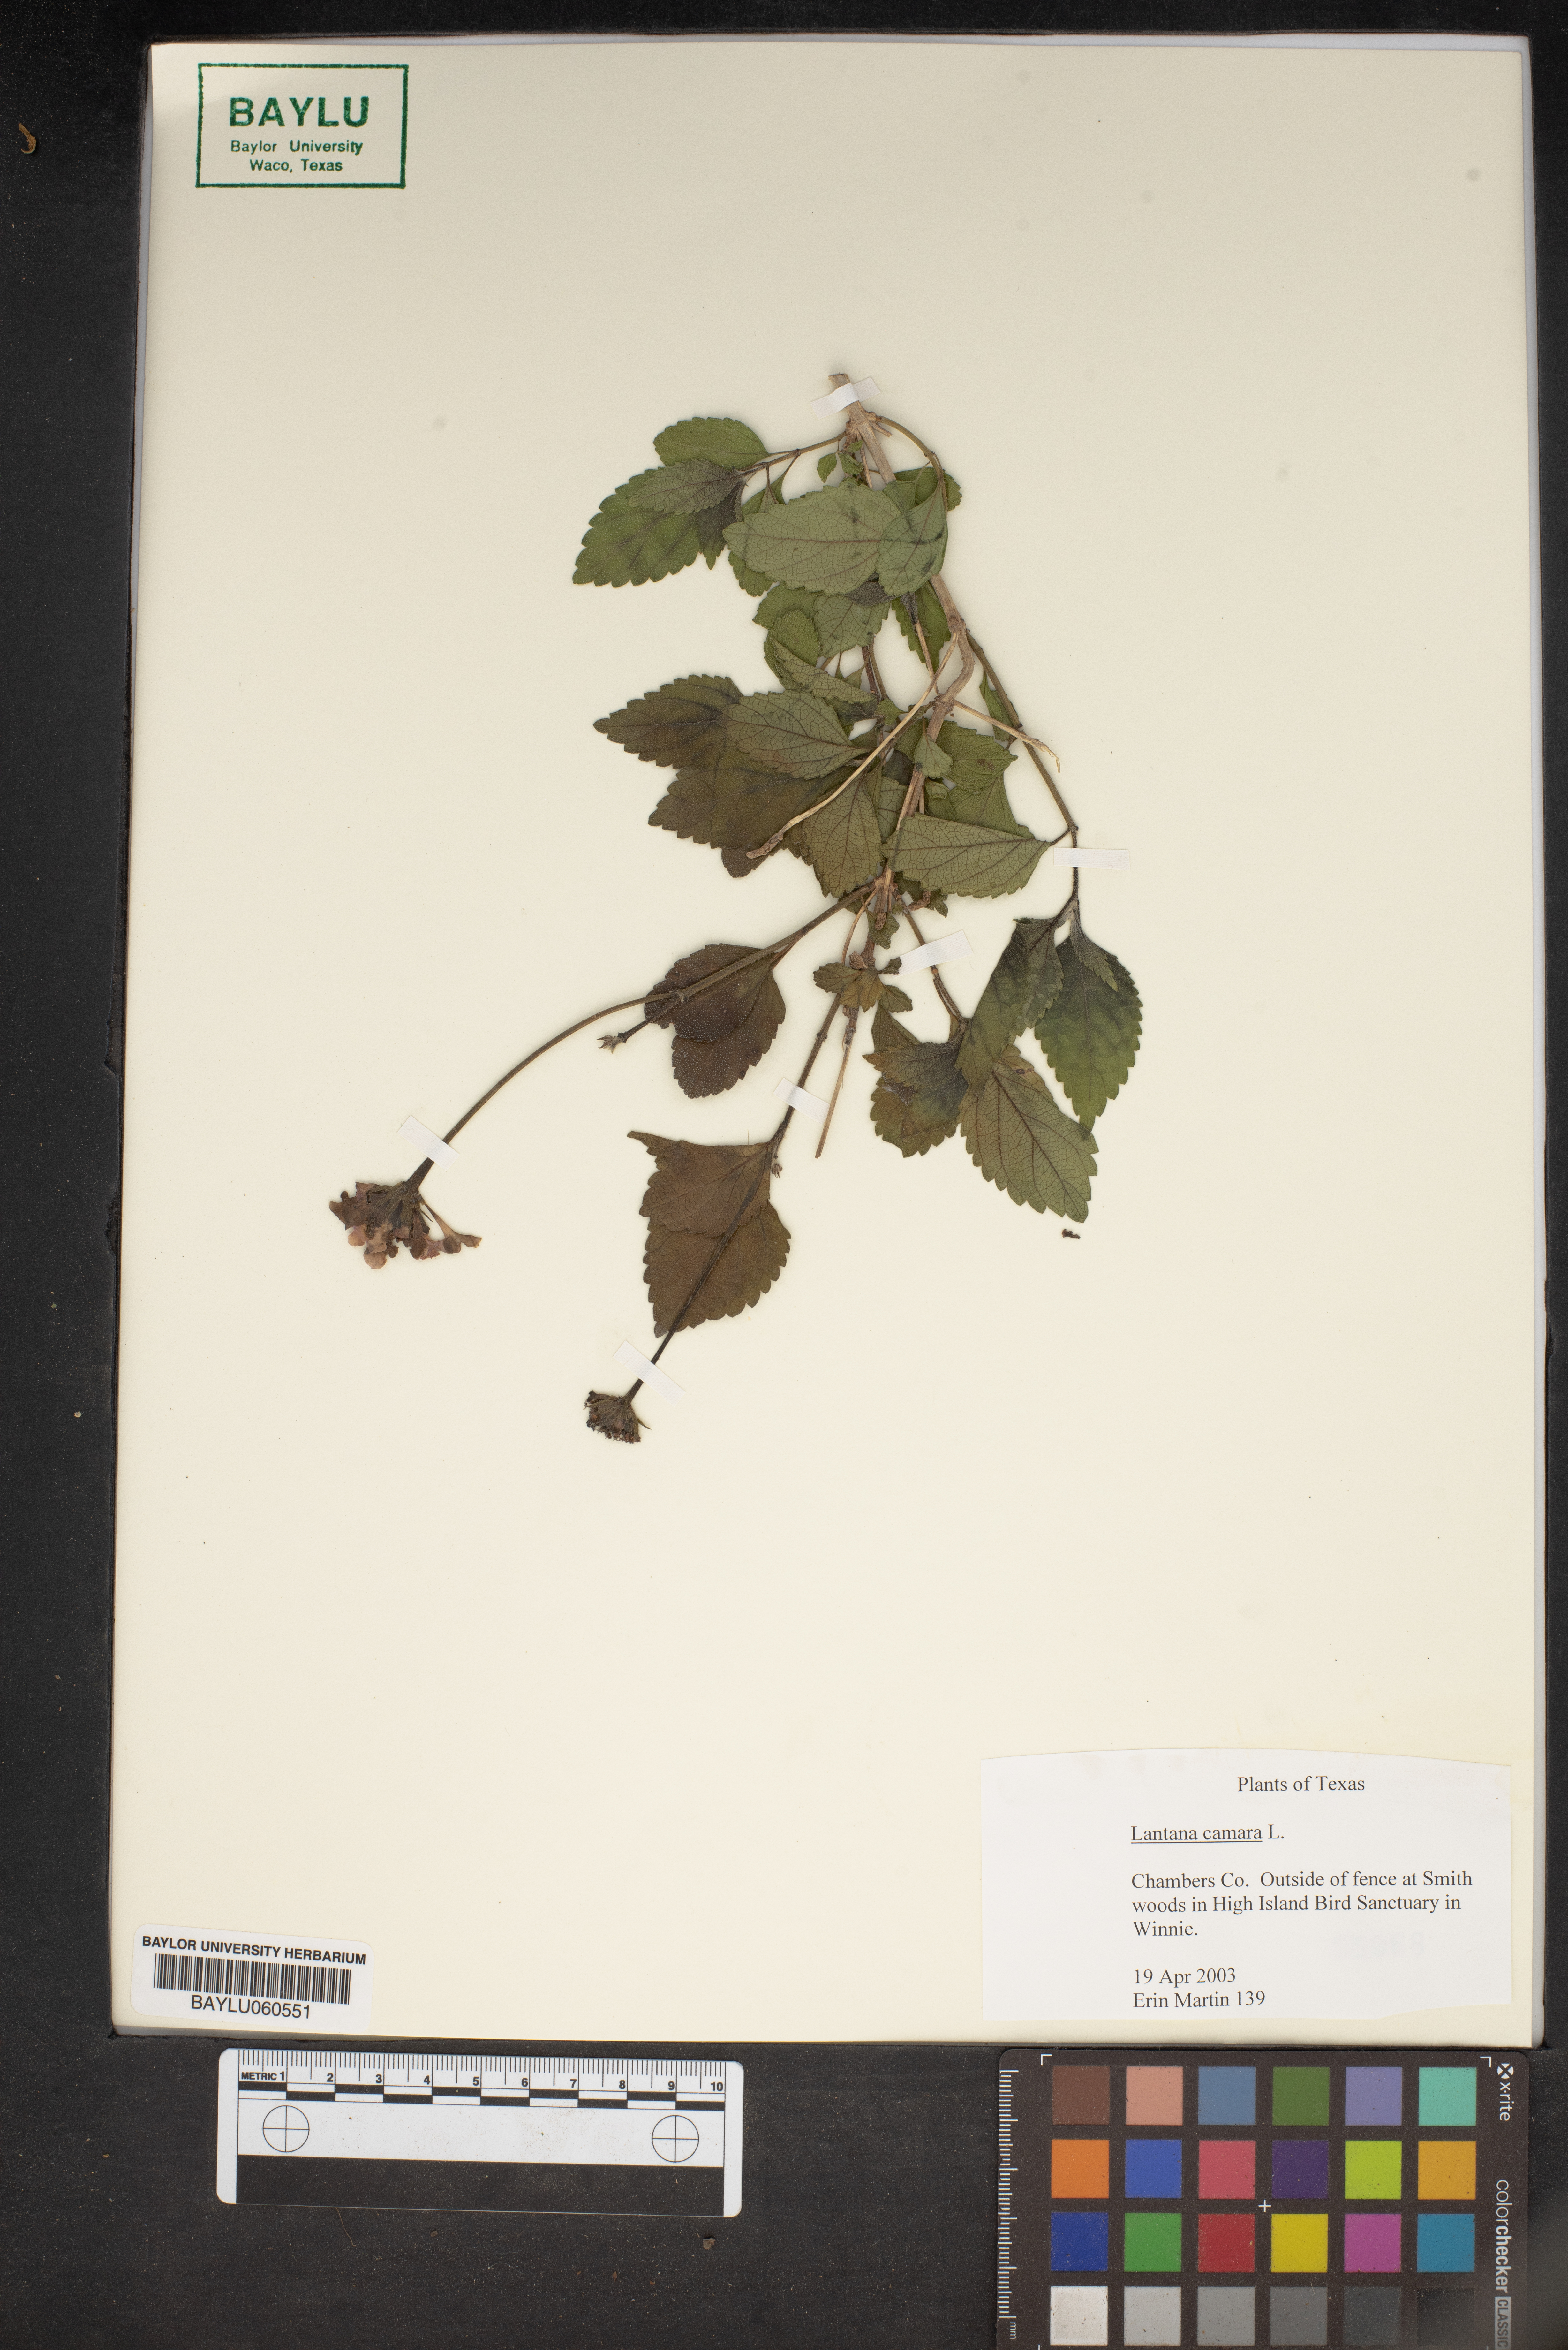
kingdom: Plantae
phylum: Tracheophyta
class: Magnoliopsida
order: Lamiales
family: Verbenaceae
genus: Lantana
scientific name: Lantana camara
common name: Lantana
